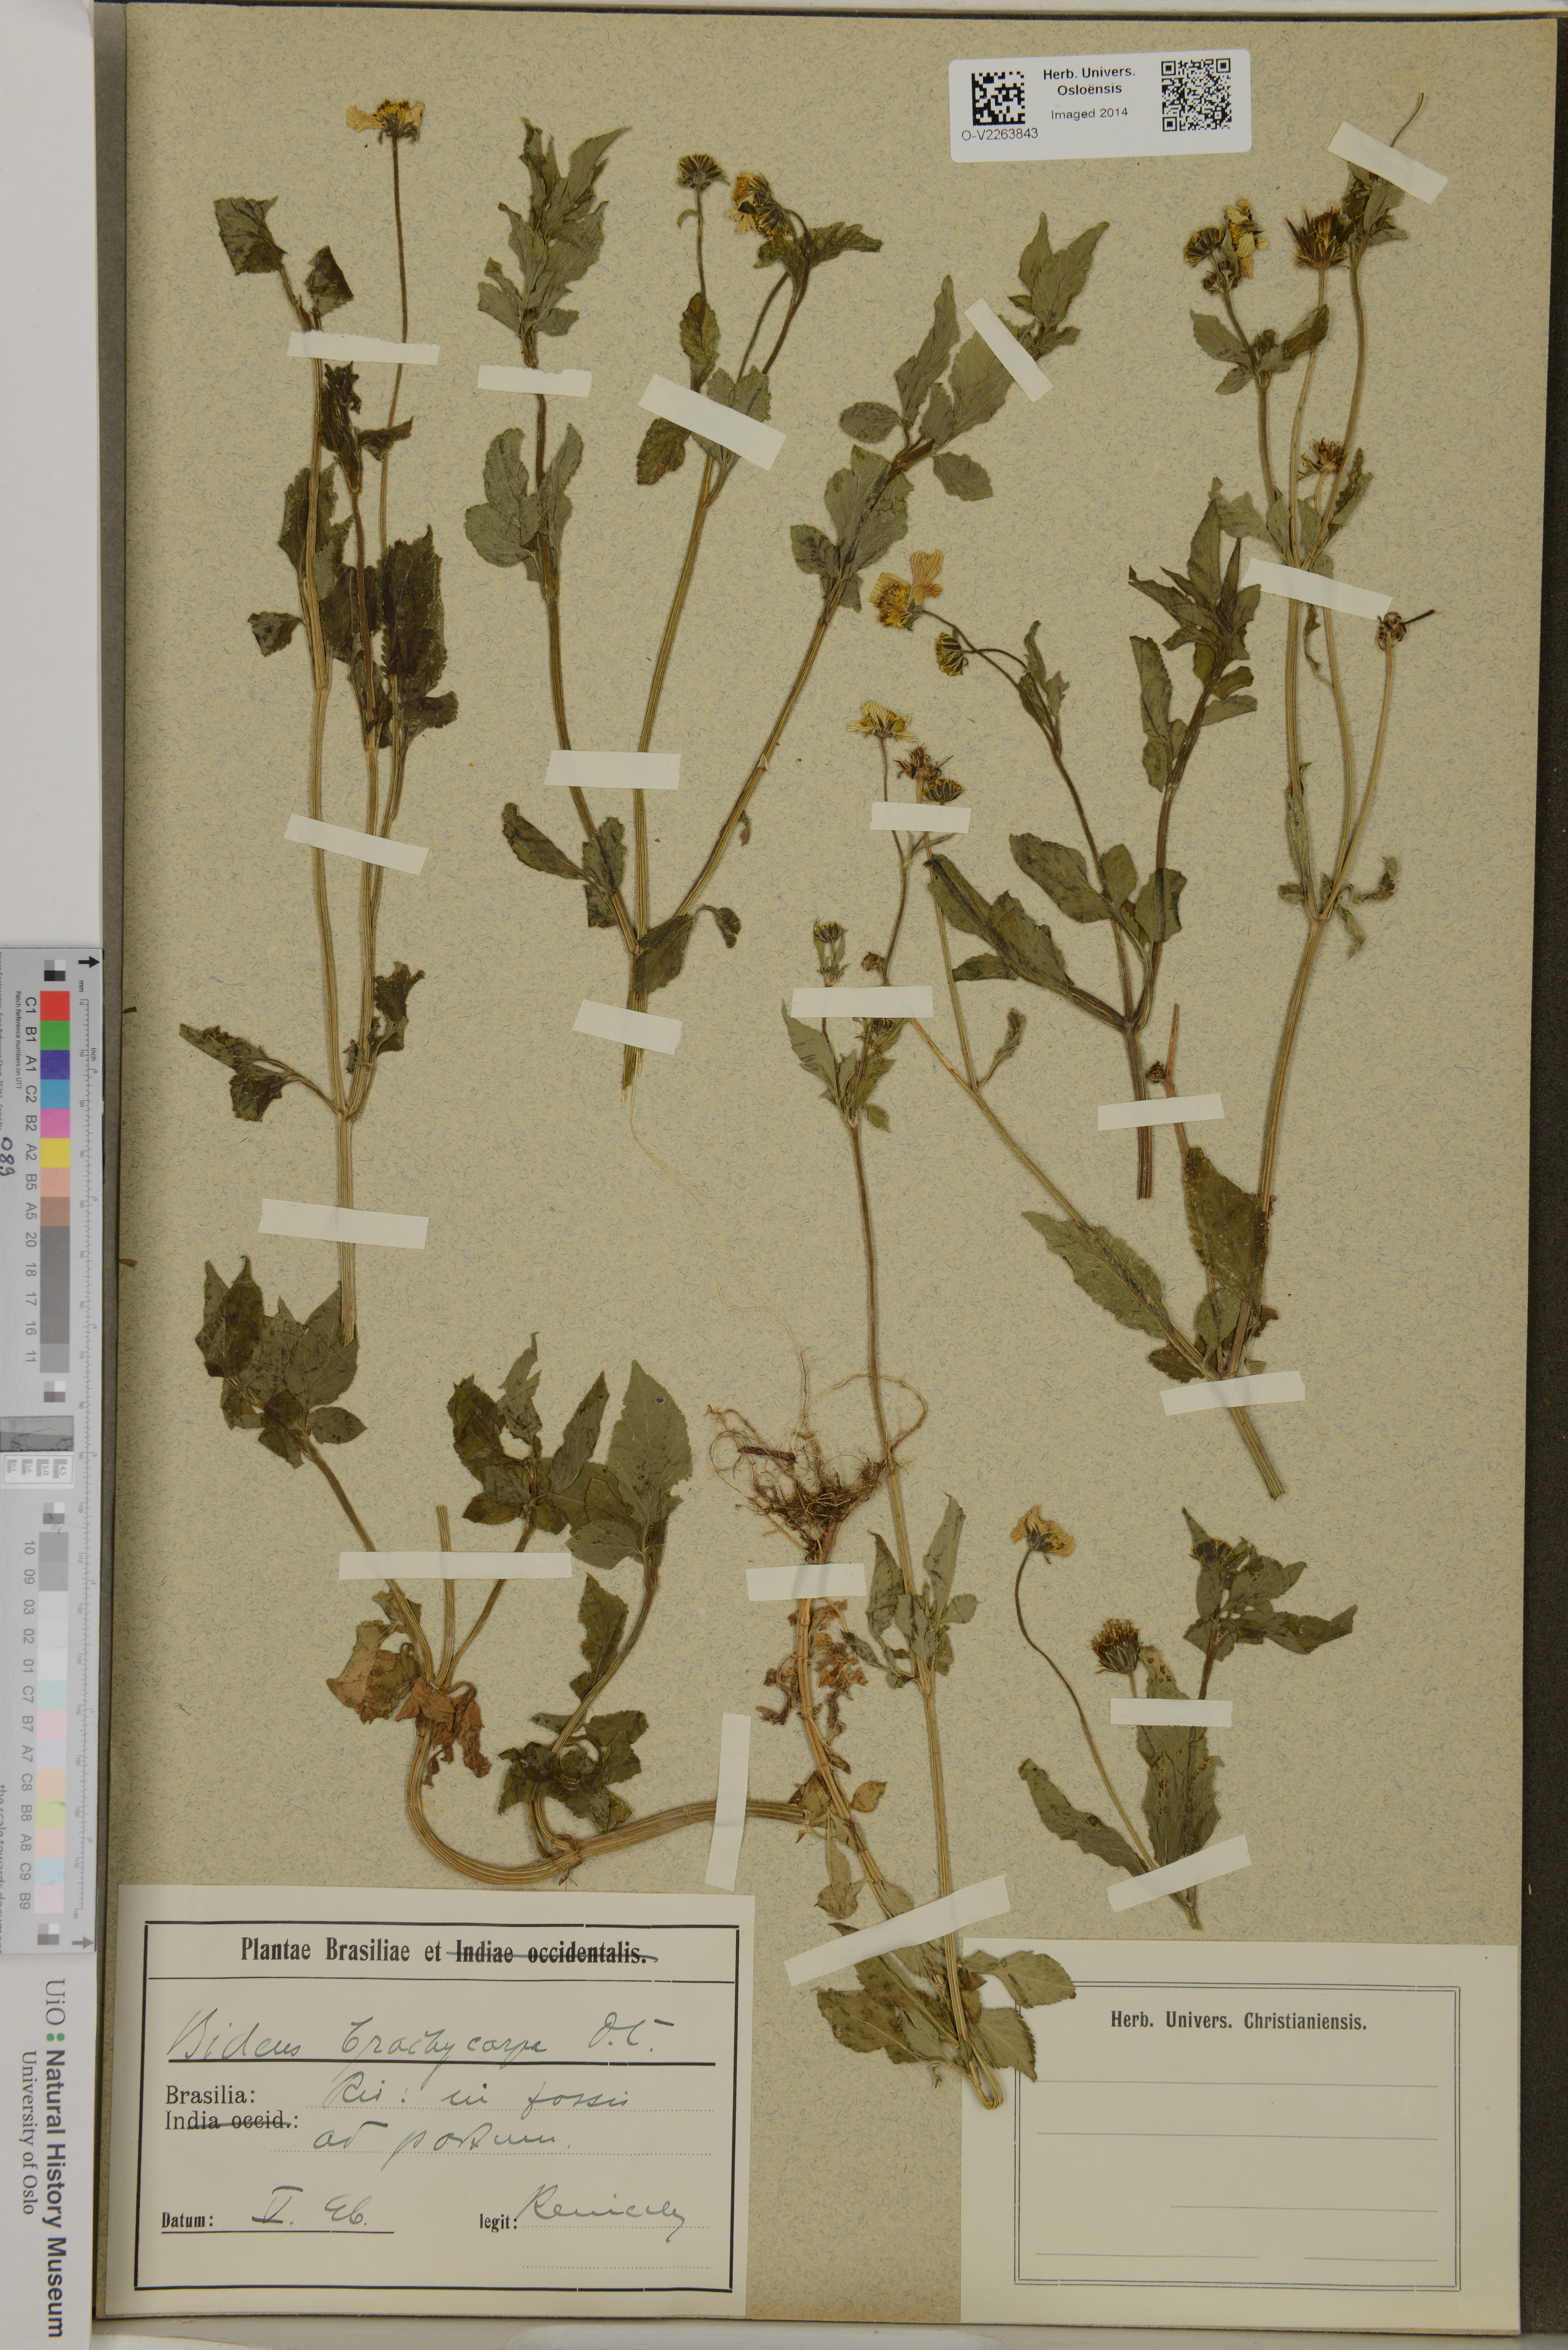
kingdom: Plantae
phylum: Tracheophyta
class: Magnoliopsida
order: Asterales
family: Asteraceae
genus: Bidens
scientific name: Bidens alba
